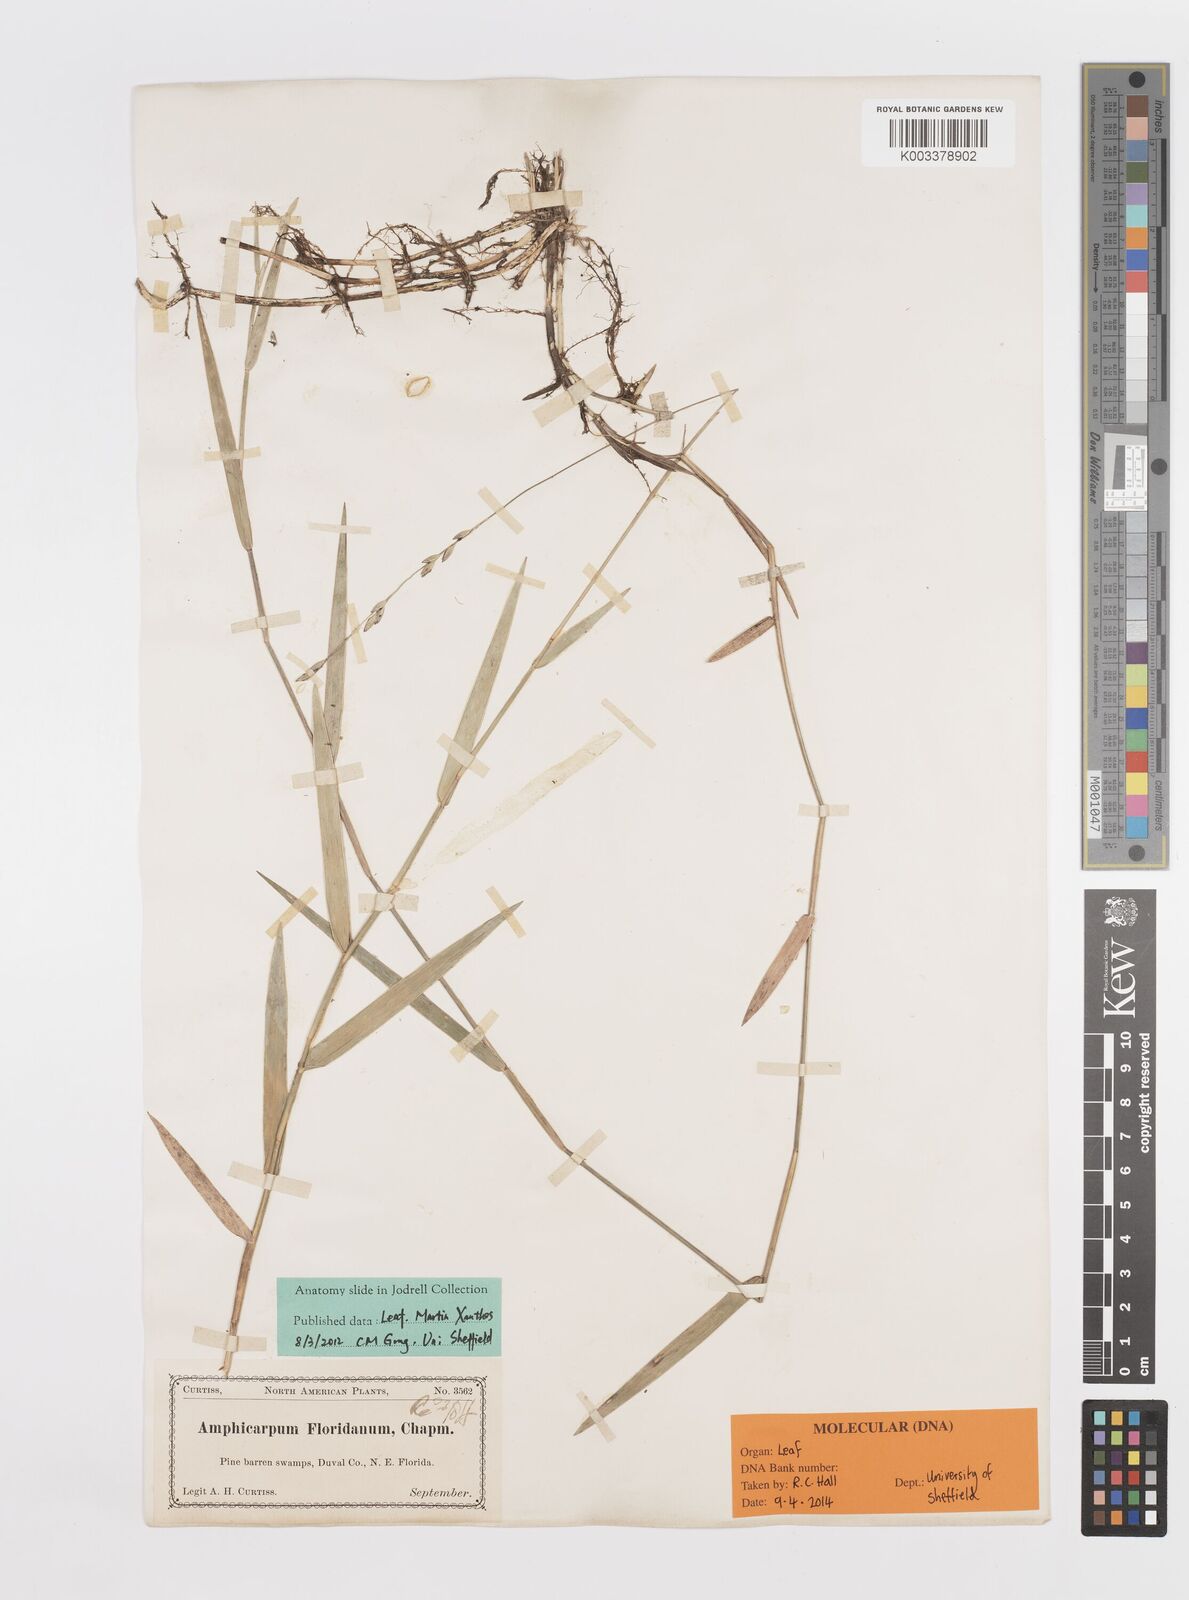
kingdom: Plantae
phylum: Tracheophyta
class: Liliopsida
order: Poales
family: Poaceae
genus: Amphicarpum
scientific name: Amphicarpum muehlenbergianum
